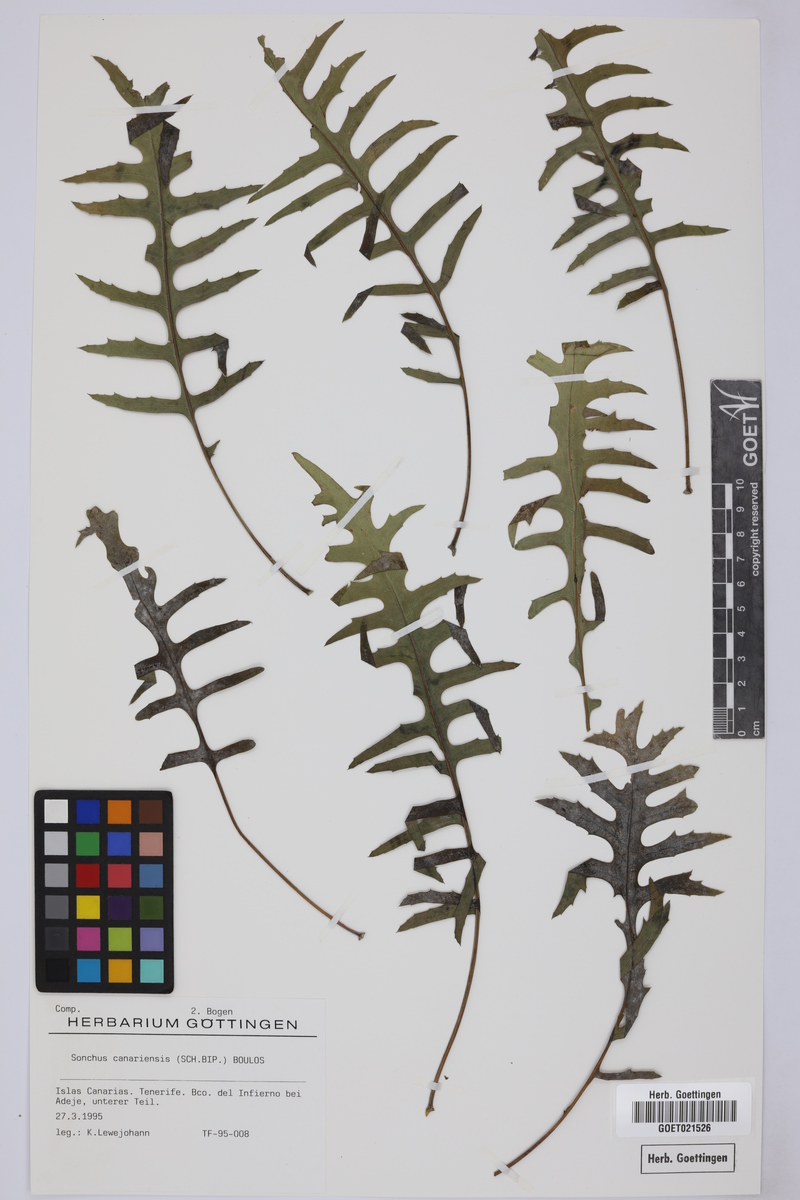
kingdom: Plantae
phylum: Tracheophyta
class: Magnoliopsida
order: Asterales
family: Asteraceae
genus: Sonchus
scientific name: Sonchus canariensis
